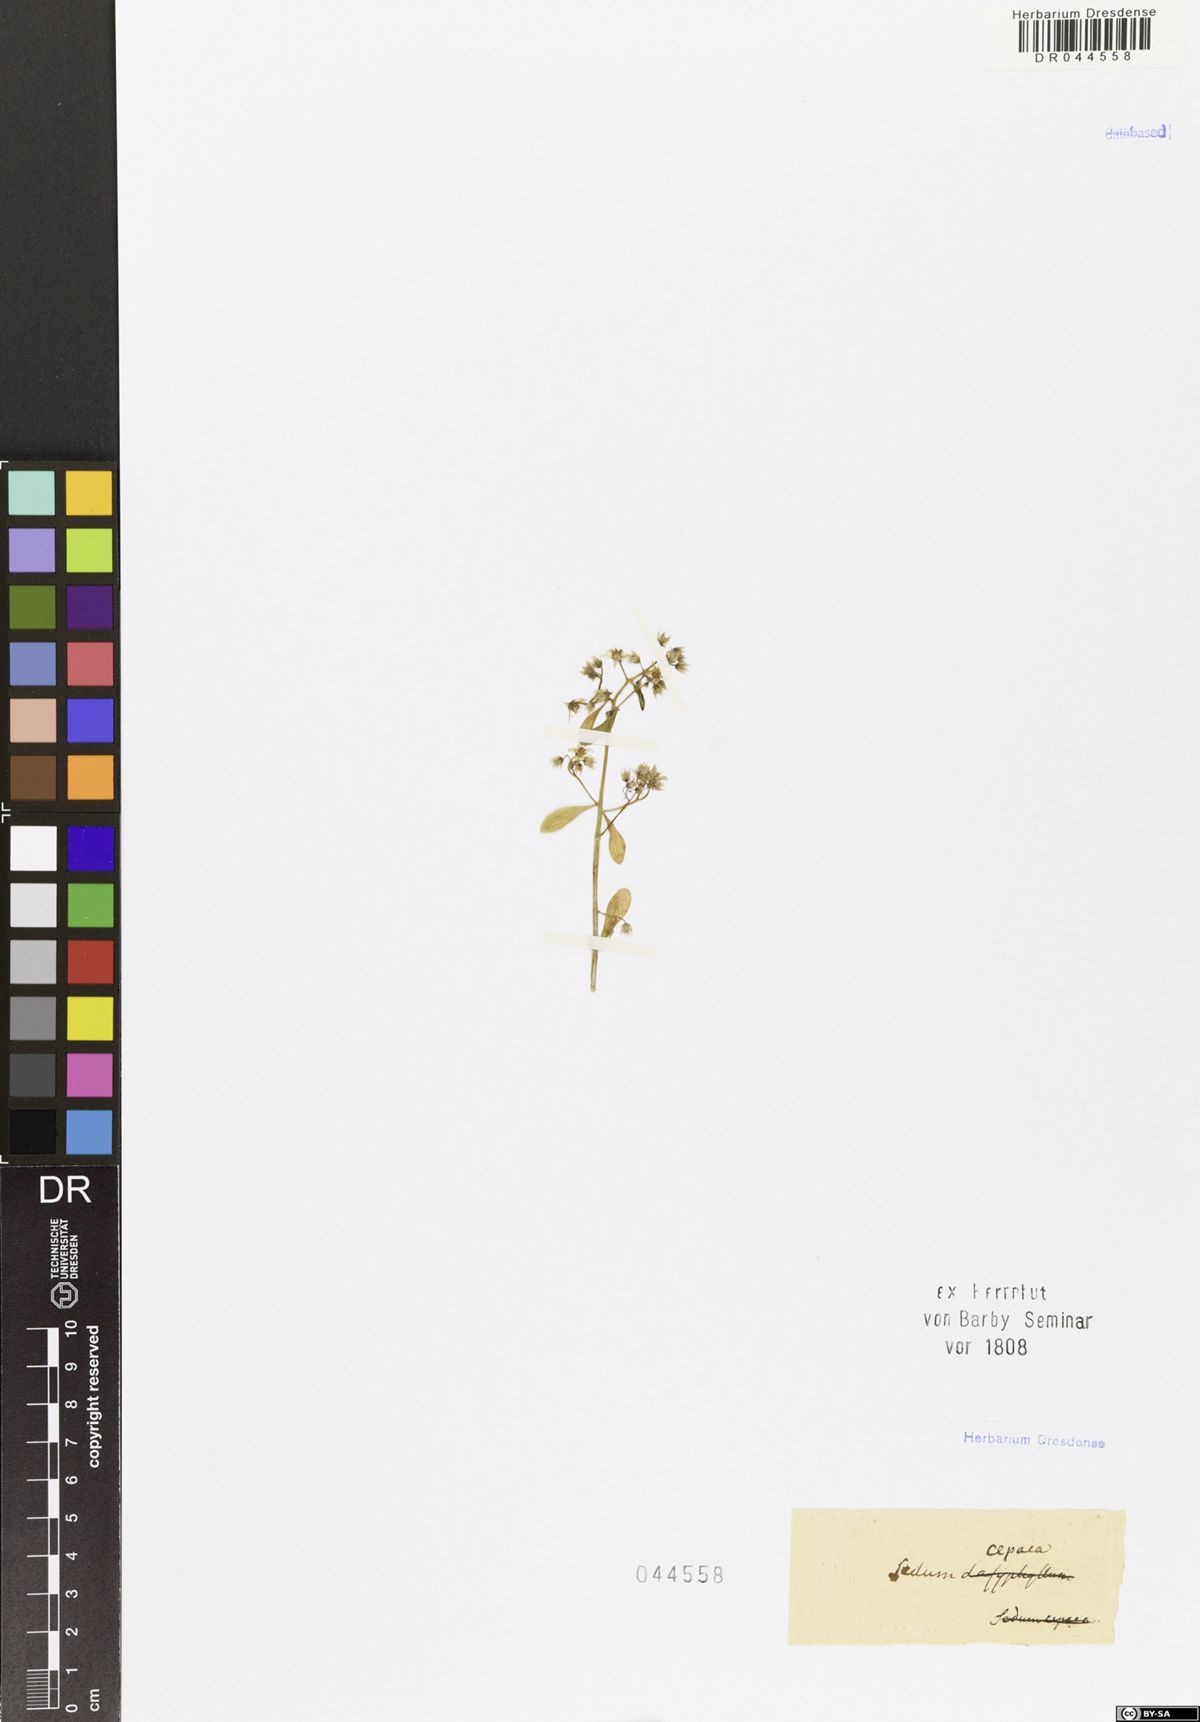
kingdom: Plantae
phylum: Tracheophyta
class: Magnoliopsida
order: Saxifragales
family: Crassulaceae
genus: Sedum
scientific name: Sedum cepaea
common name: Pink stonecrop
